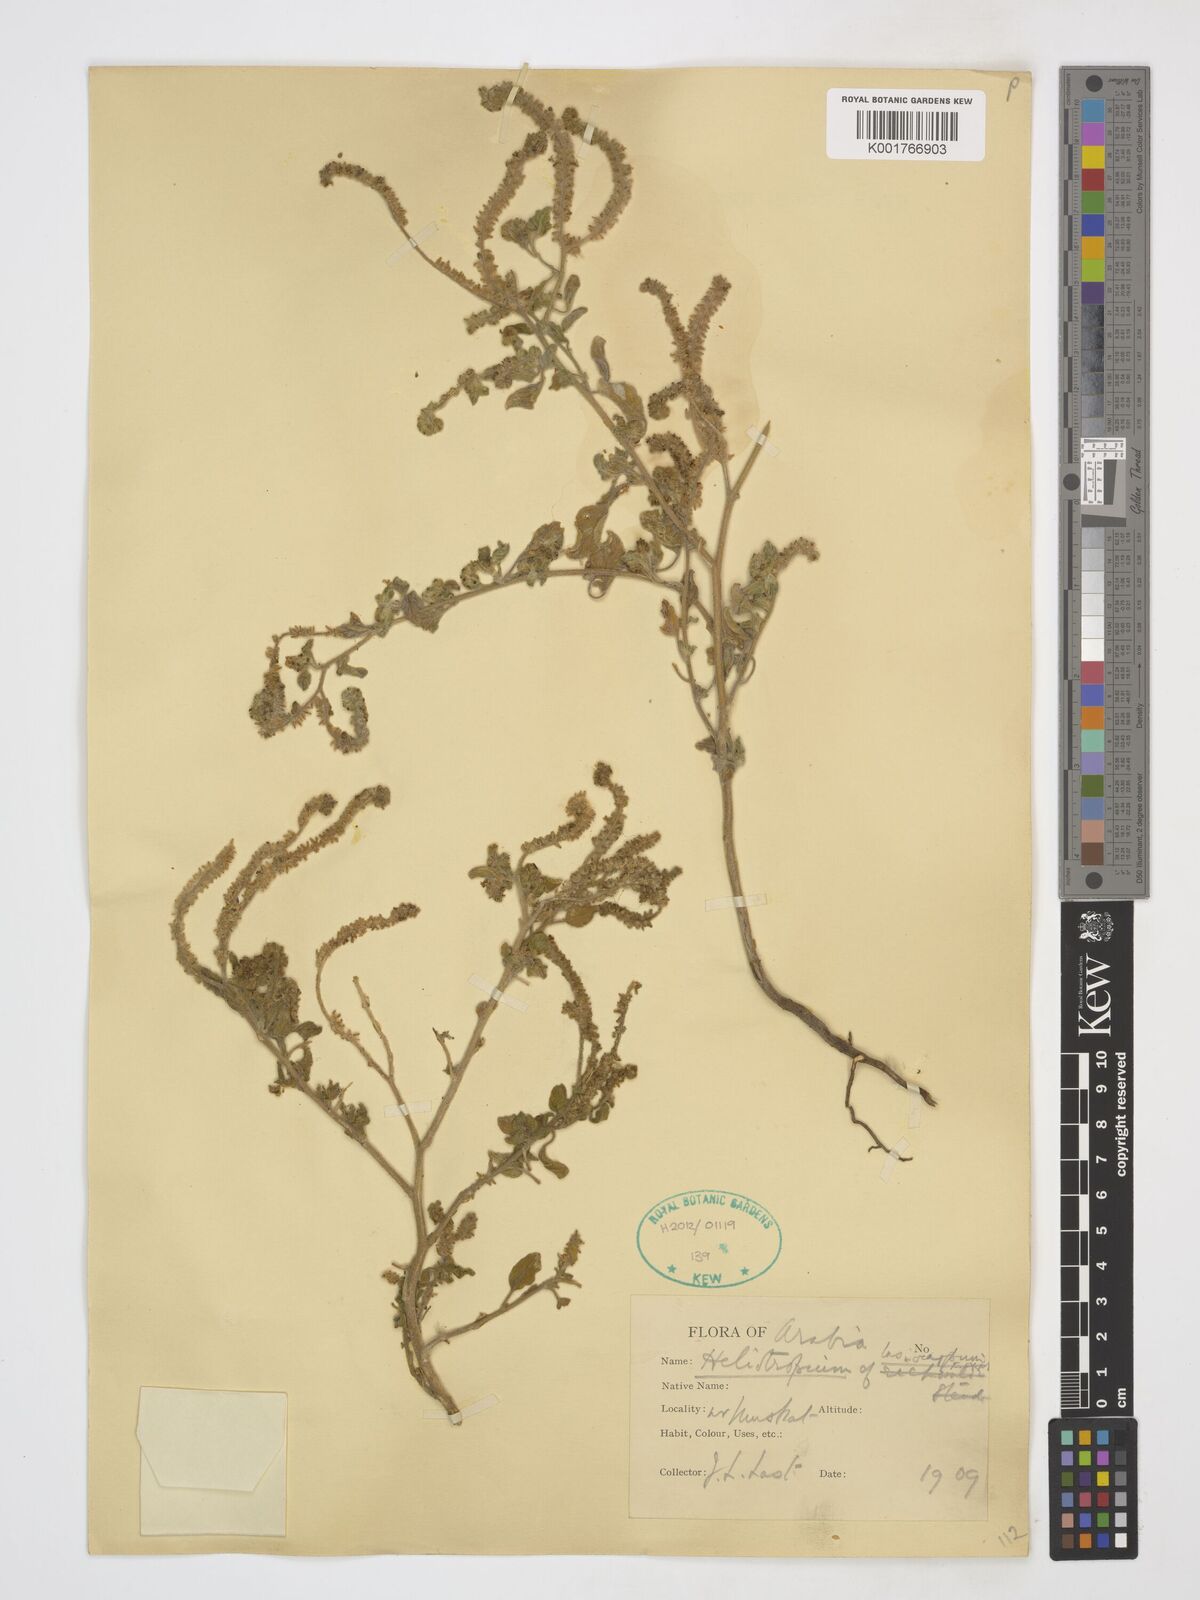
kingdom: Plantae
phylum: Tracheophyta
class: Magnoliopsida
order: Boraginales
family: Heliotropiaceae
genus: Heliotropium
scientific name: Heliotropium lasiocarpum
